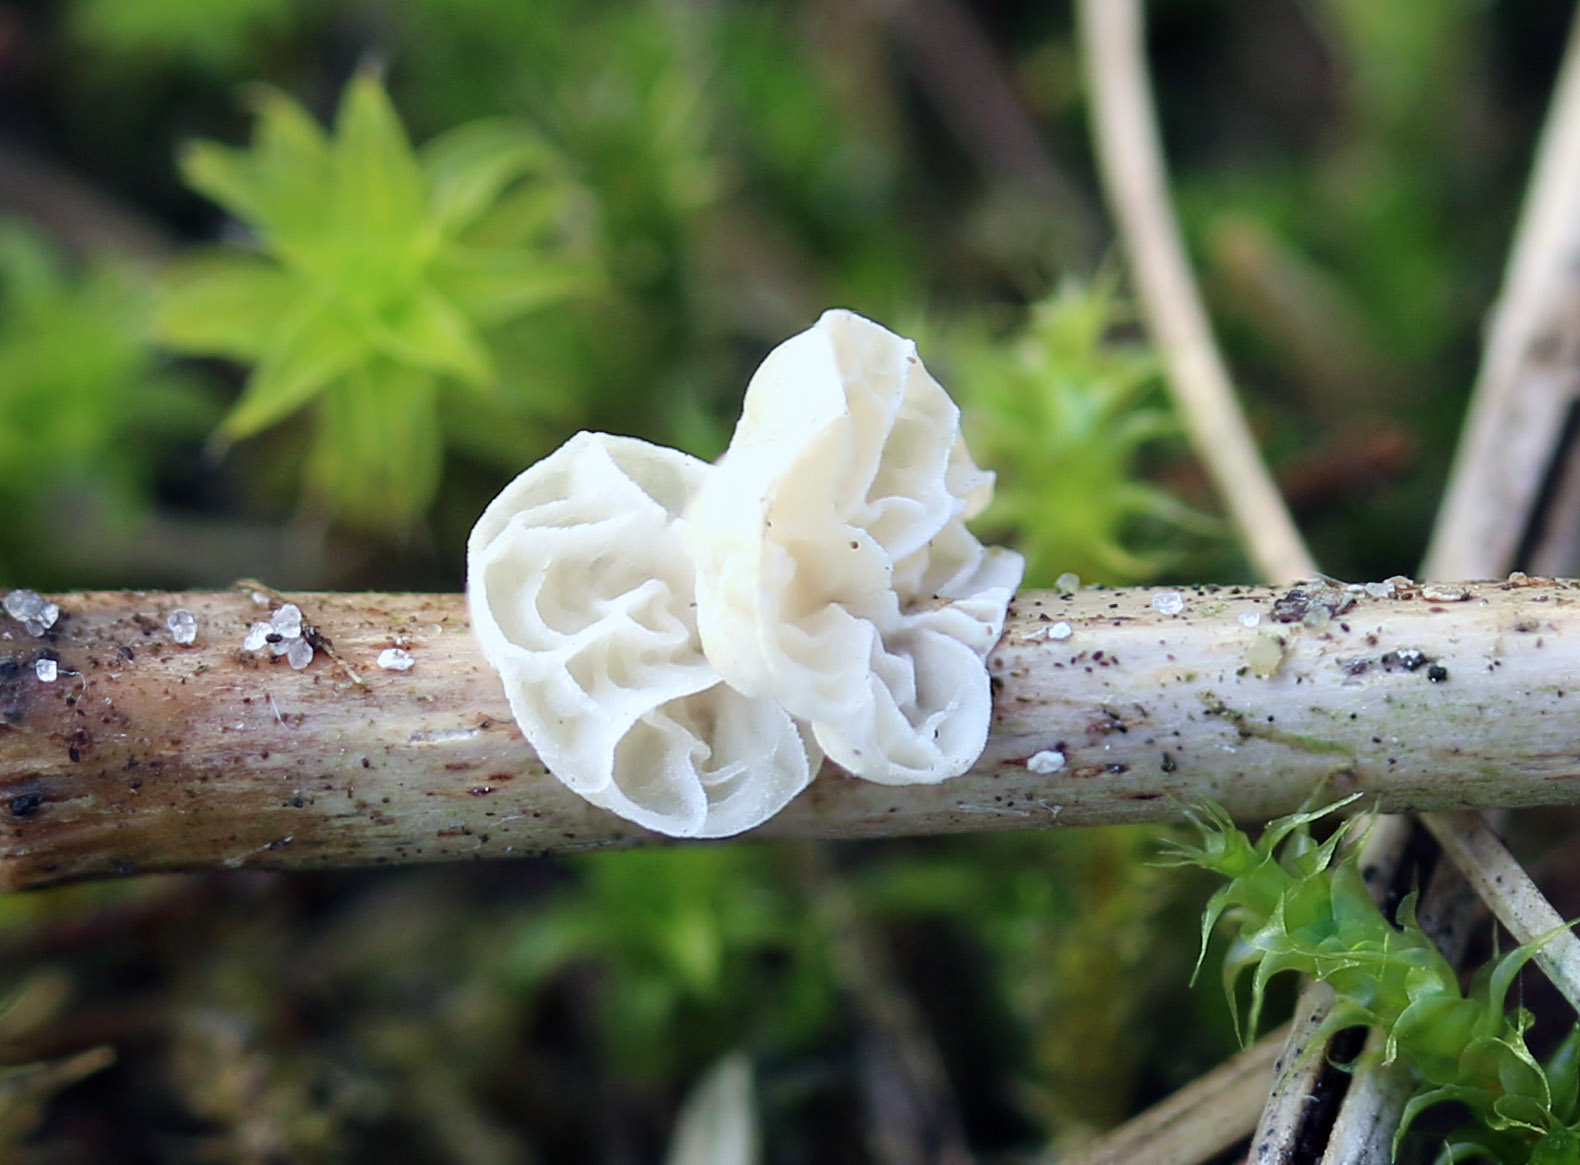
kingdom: Fungi
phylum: Basidiomycota
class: Agaricomycetes
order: Agaricales
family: Marasmiaceae
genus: Campanella
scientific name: Campanella caesia
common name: bruskøre
